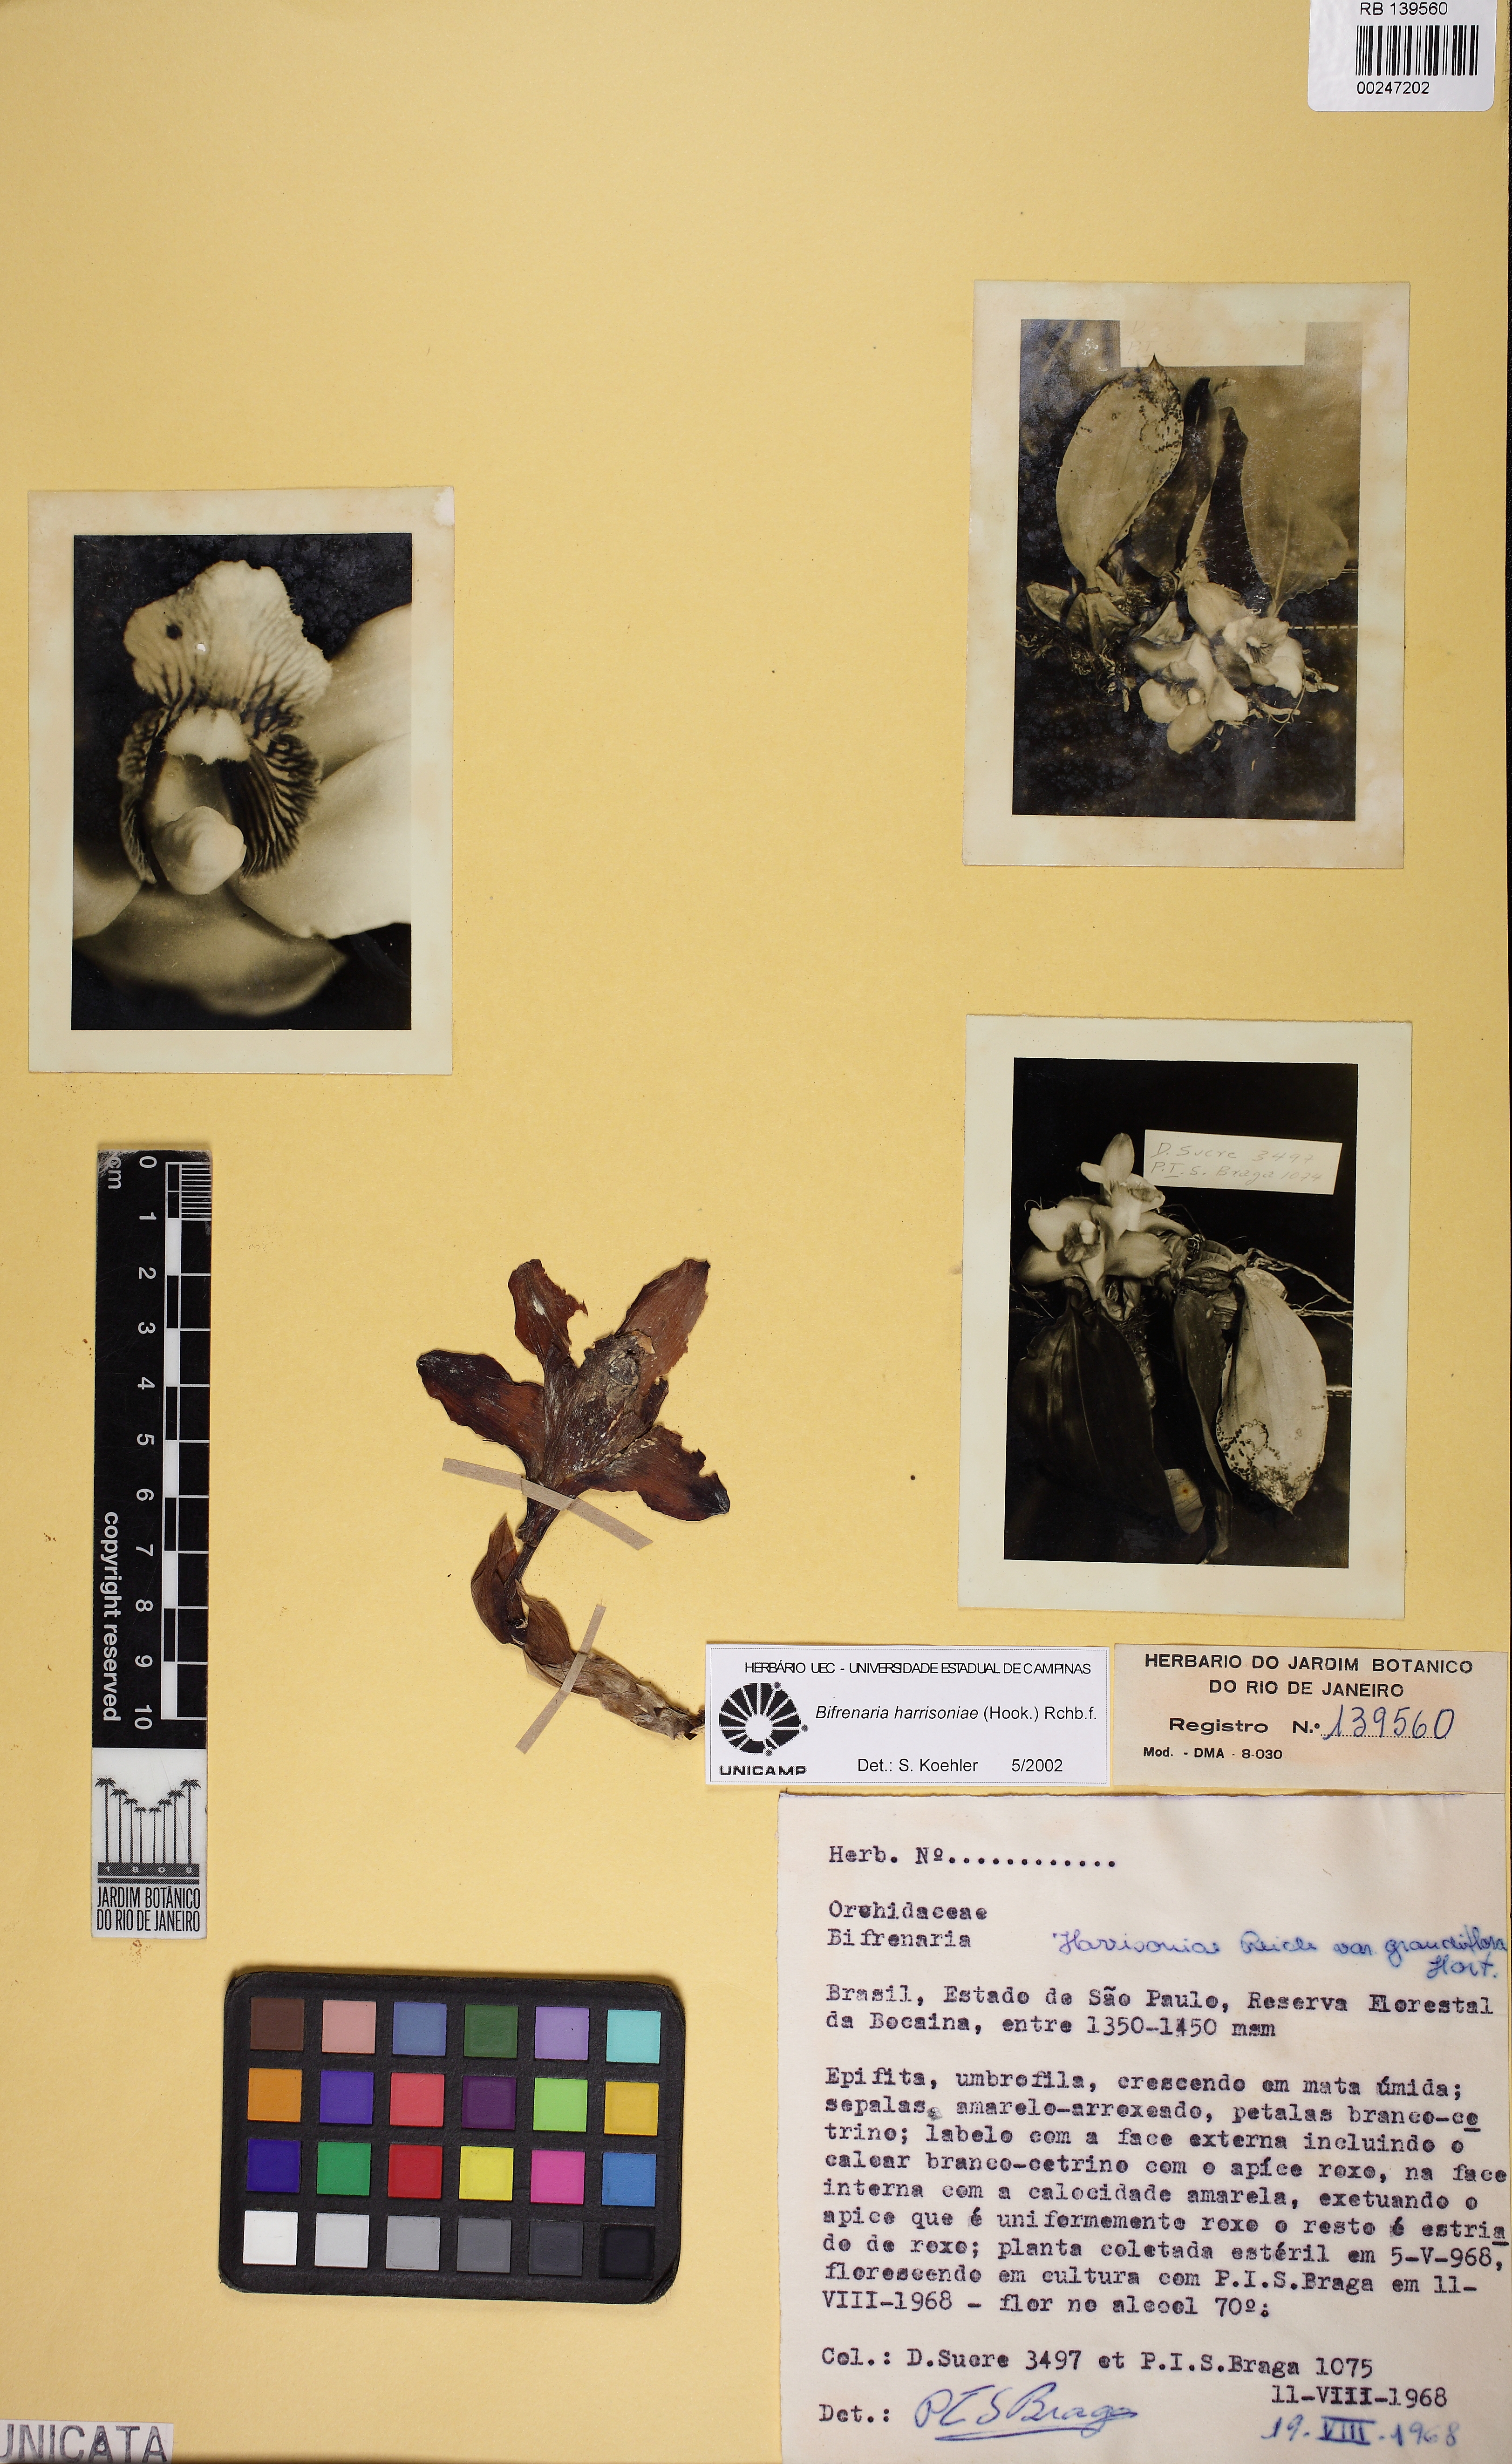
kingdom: Plantae
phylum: Tracheophyta
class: Liliopsida
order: Asparagales
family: Orchidaceae
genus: Bifrenaria
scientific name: Bifrenaria harrisoniae
